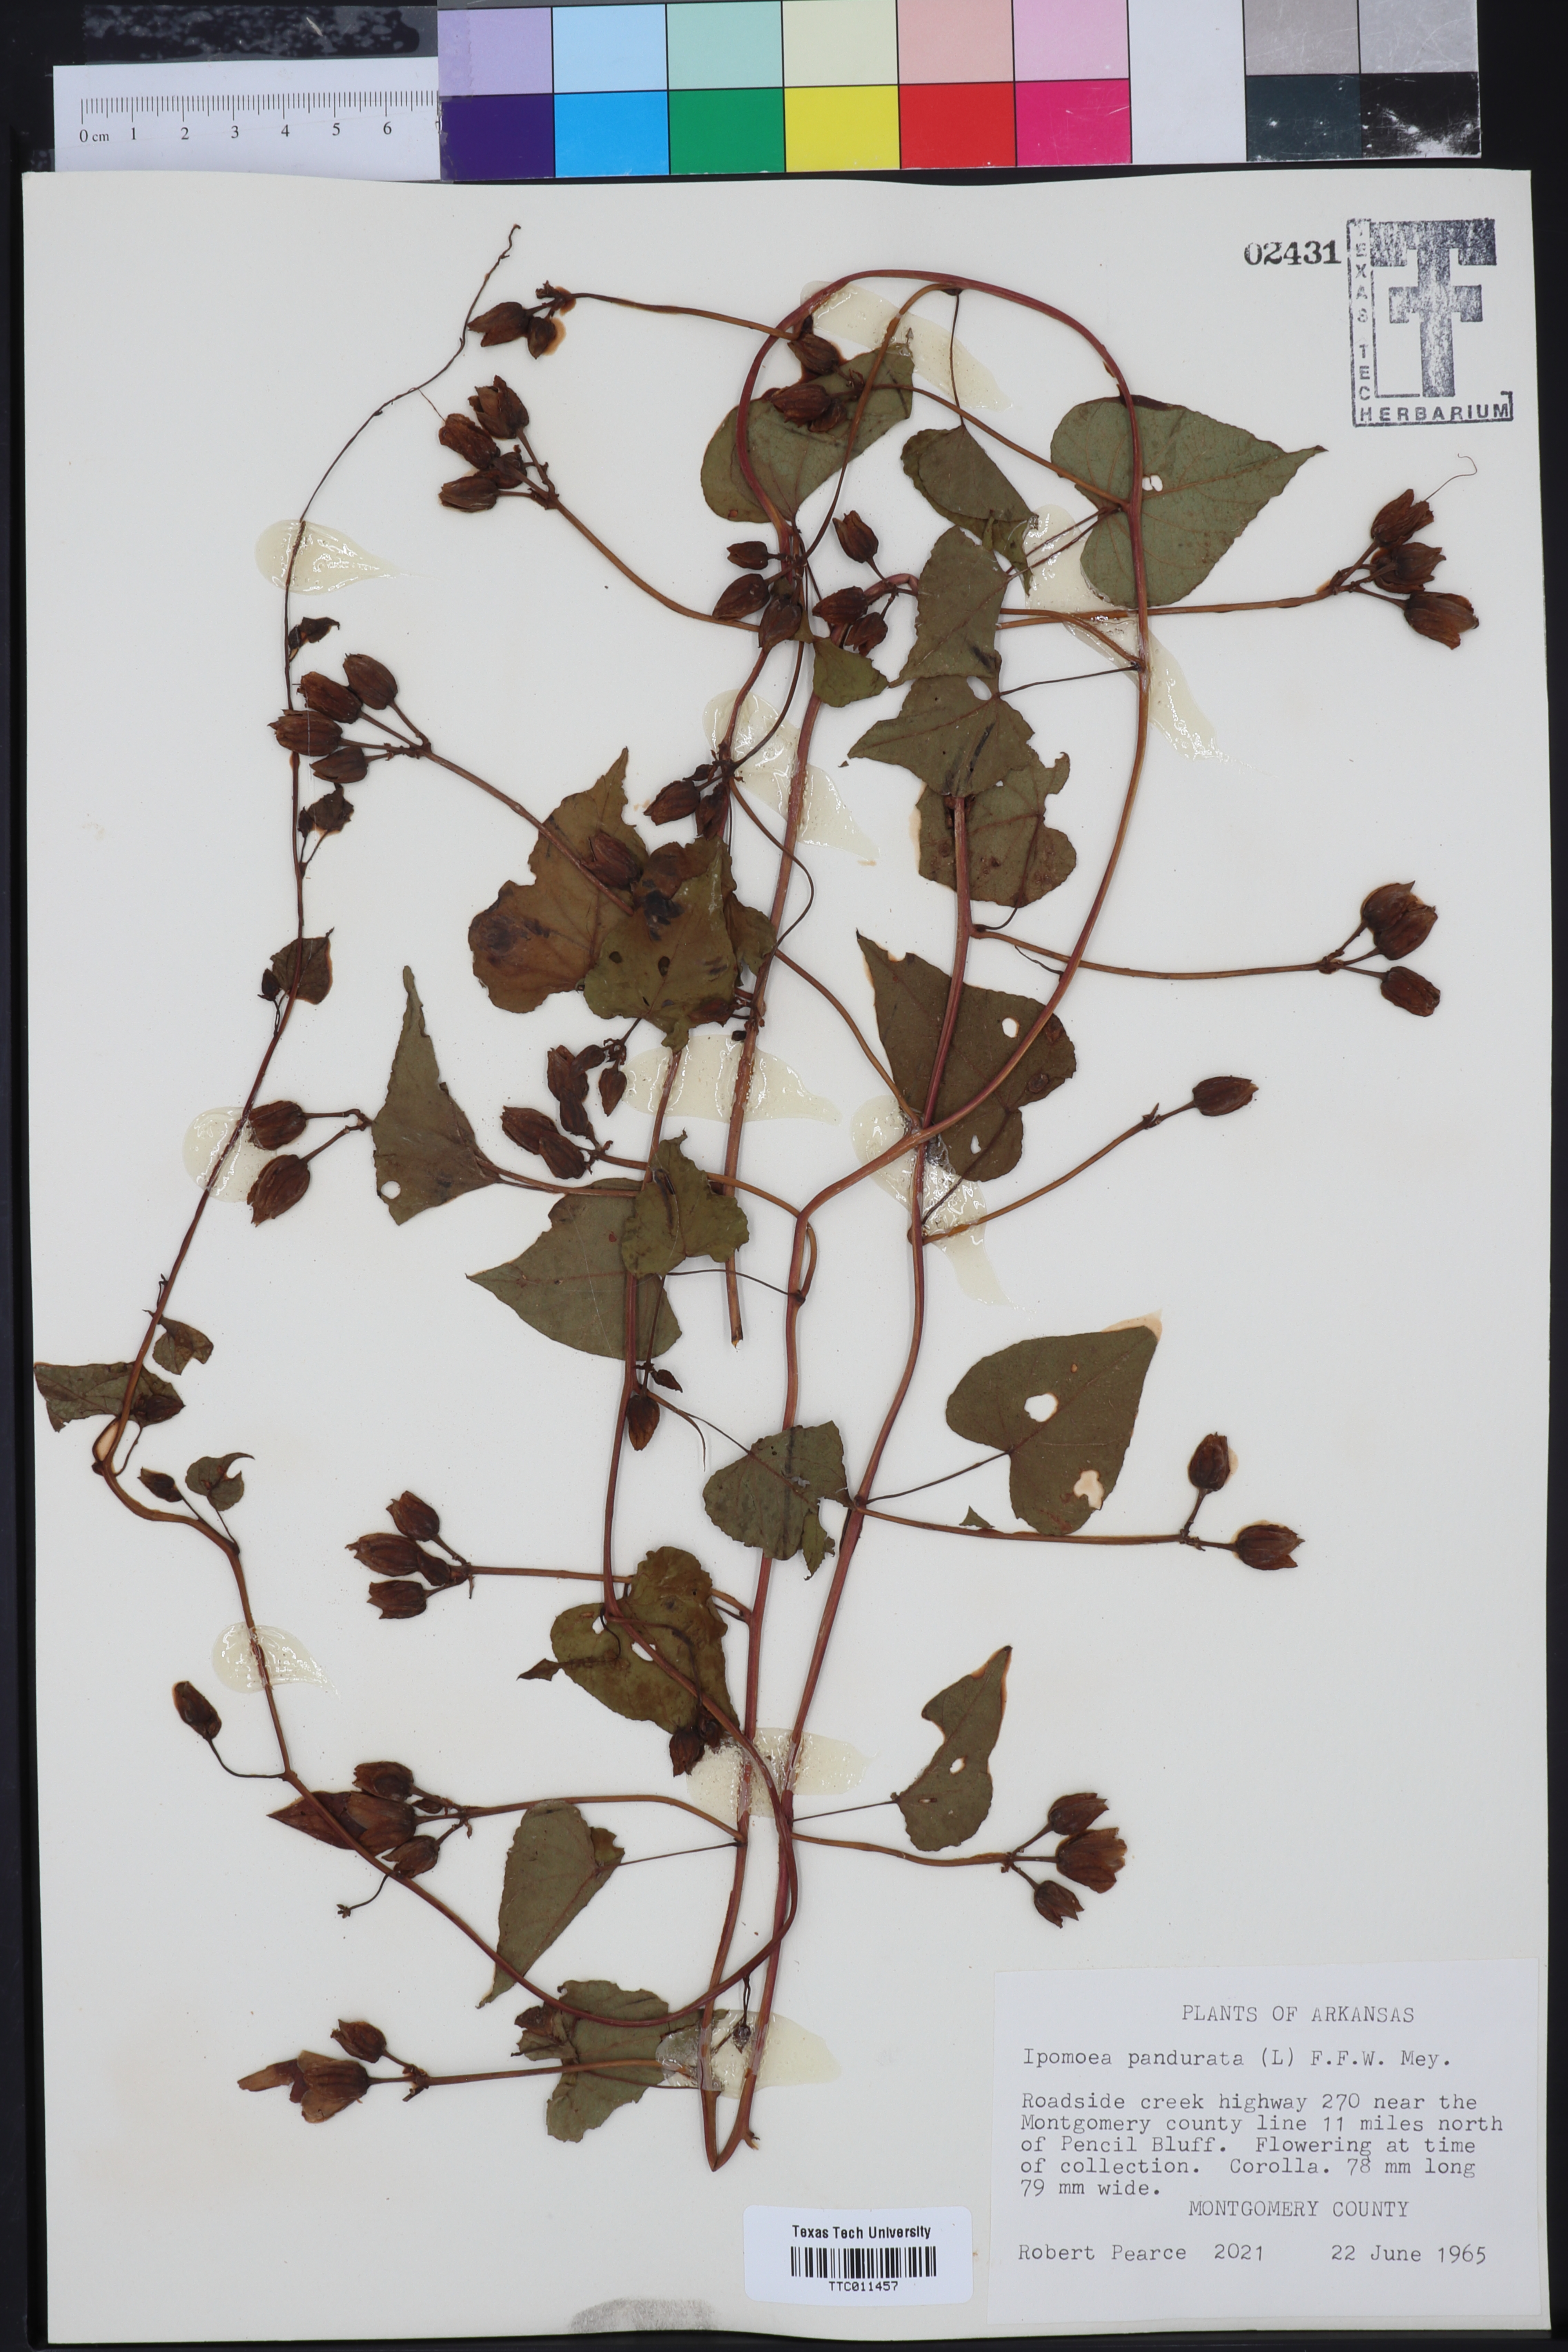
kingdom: Plantae
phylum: Tracheophyta
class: Magnoliopsida
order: Solanales
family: Convolvulaceae
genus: Ipomoea
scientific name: Ipomoea pandurata
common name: Man-of-the-earth
